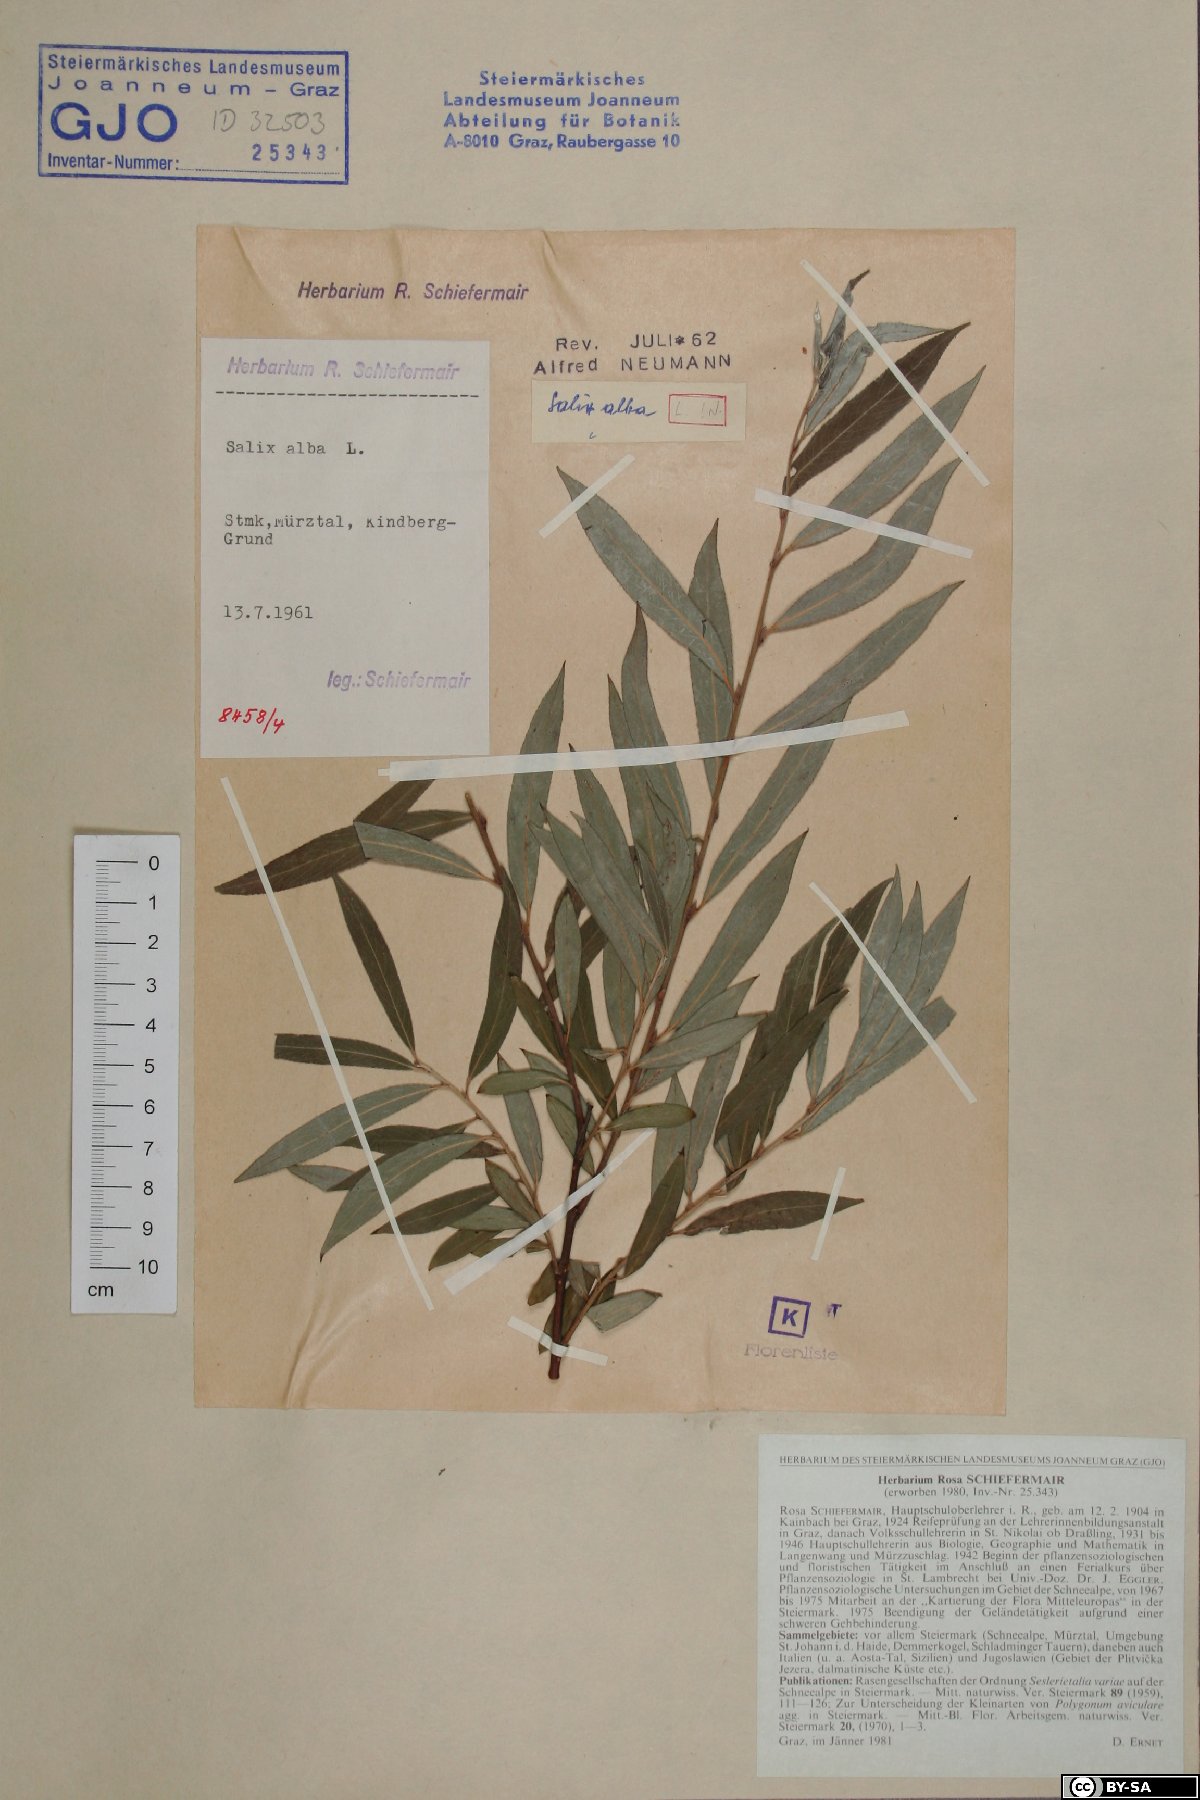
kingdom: Plantae
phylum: Tracheophyta
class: Magnoliopsida
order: Malpighiales
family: Salicaceae
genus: Salix
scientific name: Salix alba
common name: White willow
